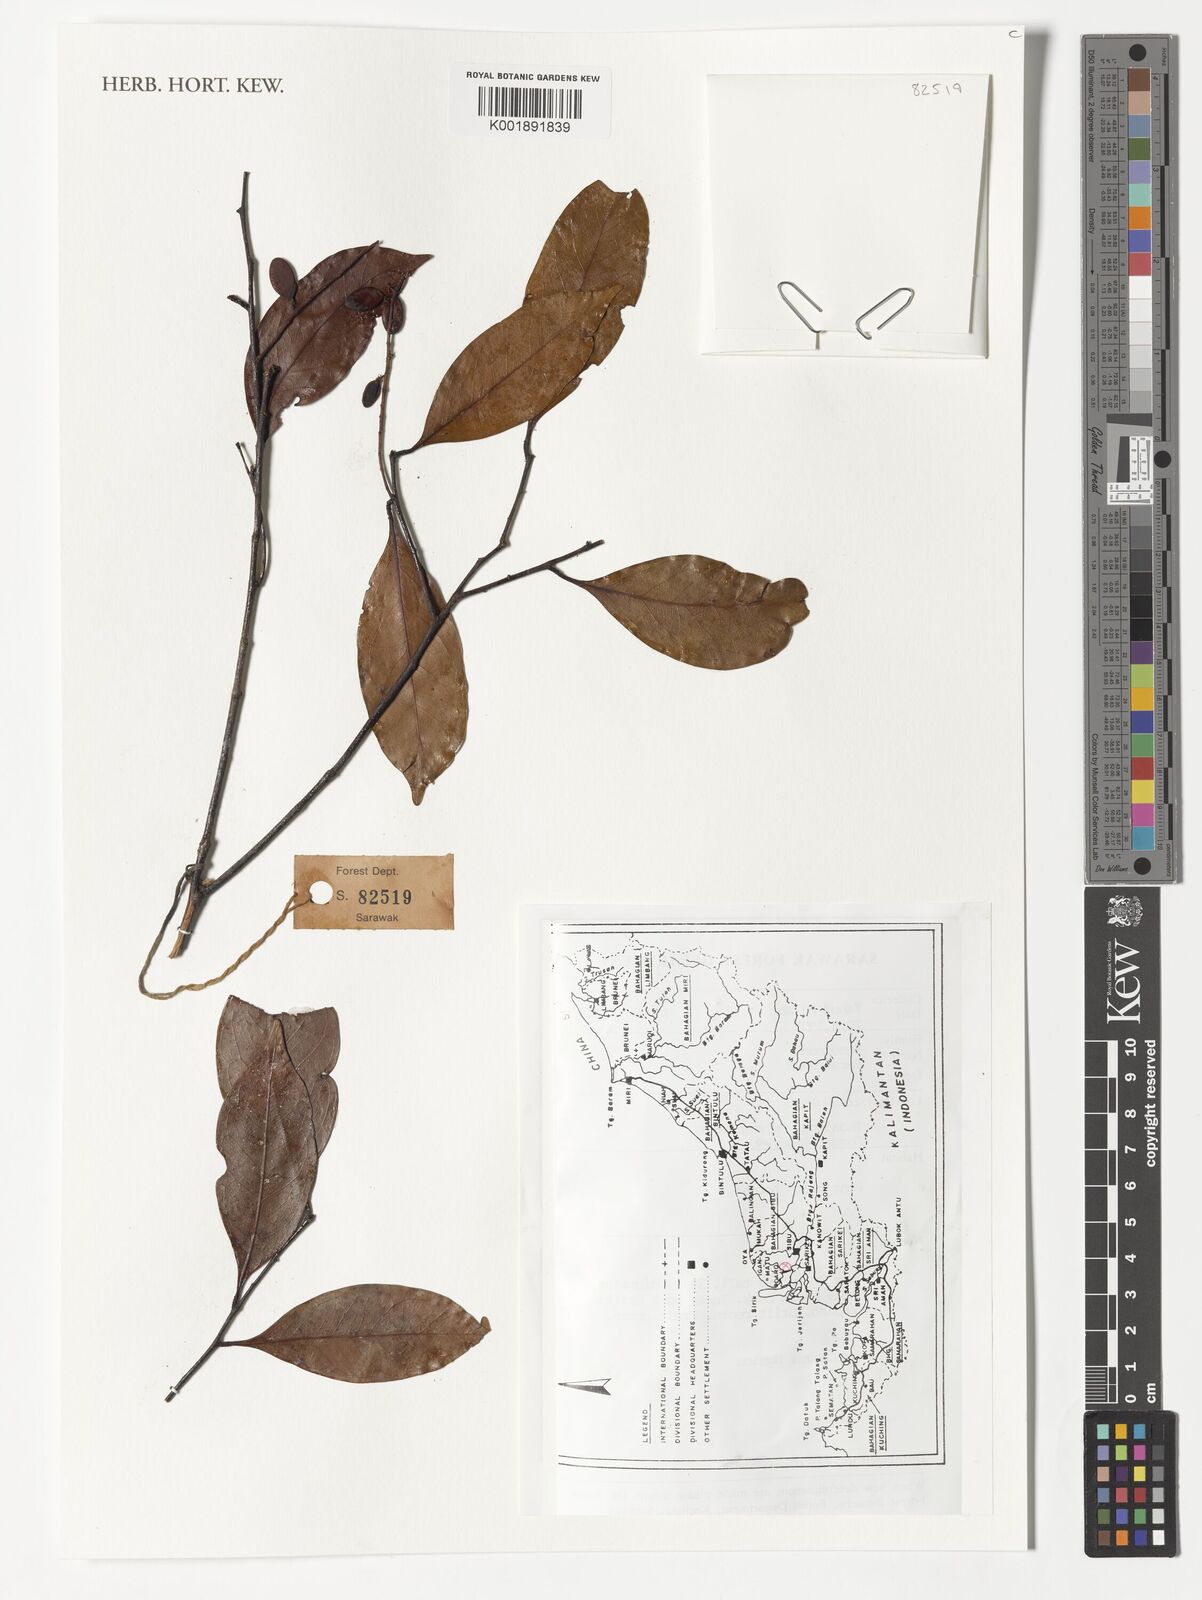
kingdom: Plantae
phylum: Tracheophyta
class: Magnoliopsida
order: Malpighiales
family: Chrysobalanaceae
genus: Parastemon
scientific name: Parastemon
